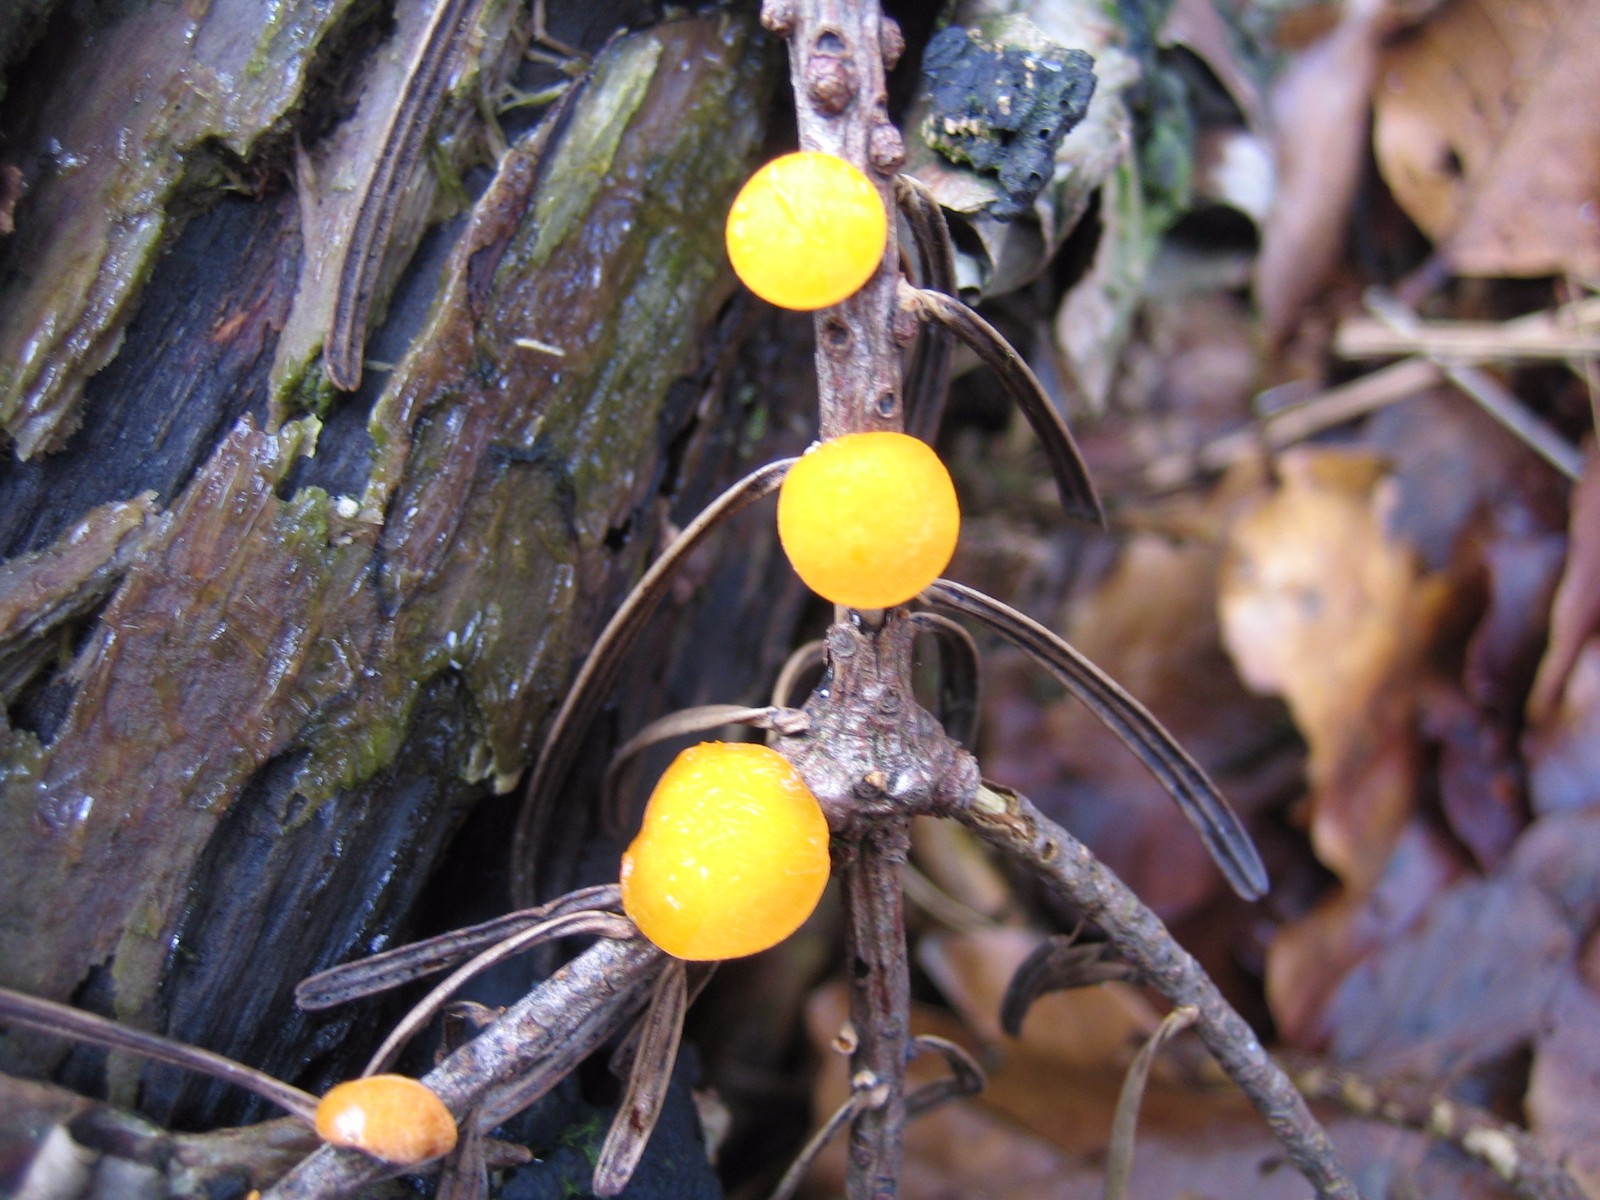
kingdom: Fungi
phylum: Ascomycota
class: Pezizomycetes
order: Pezizales
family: Sarcoscyphaceae
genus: Pithya
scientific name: Pithya vulgaris
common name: stor dukatbæger
